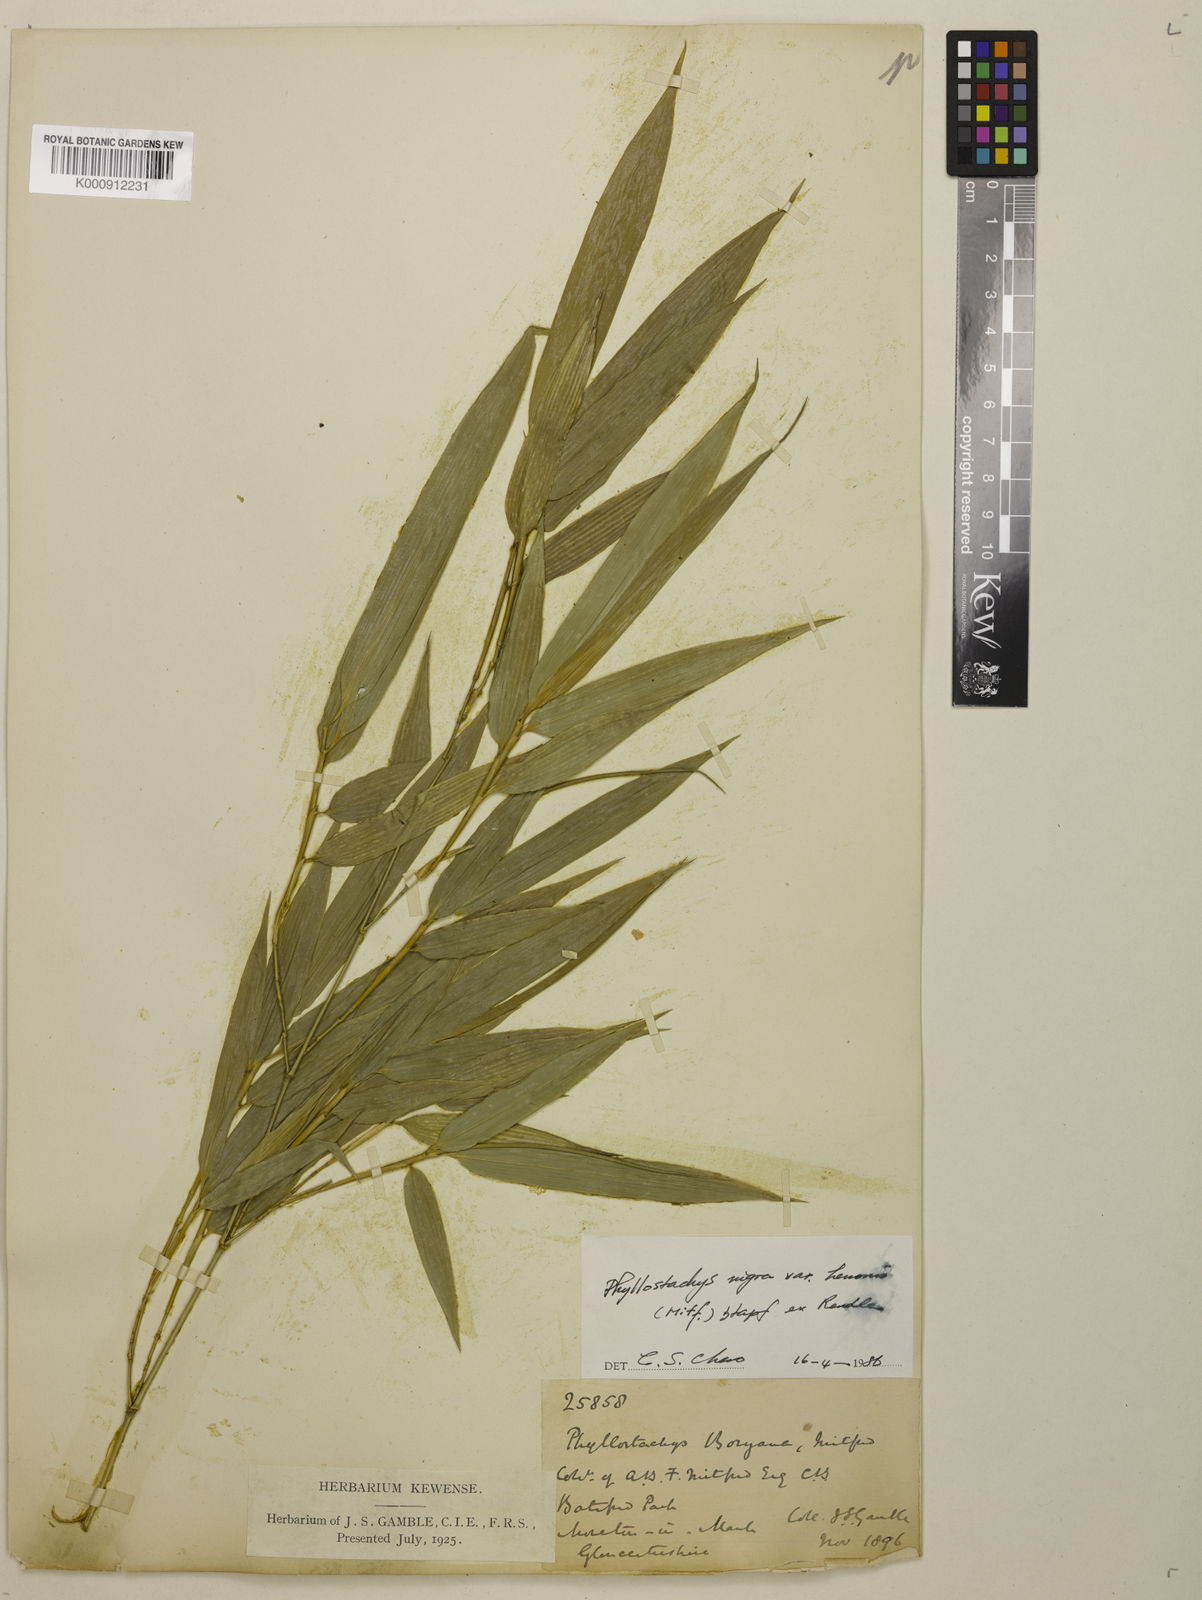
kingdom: Plantae
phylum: Tracheophyta
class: Liliopsida
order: Poales
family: Poaceae
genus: Phyllostachys
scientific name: Phyllostachys nigra
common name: Black bamboo
